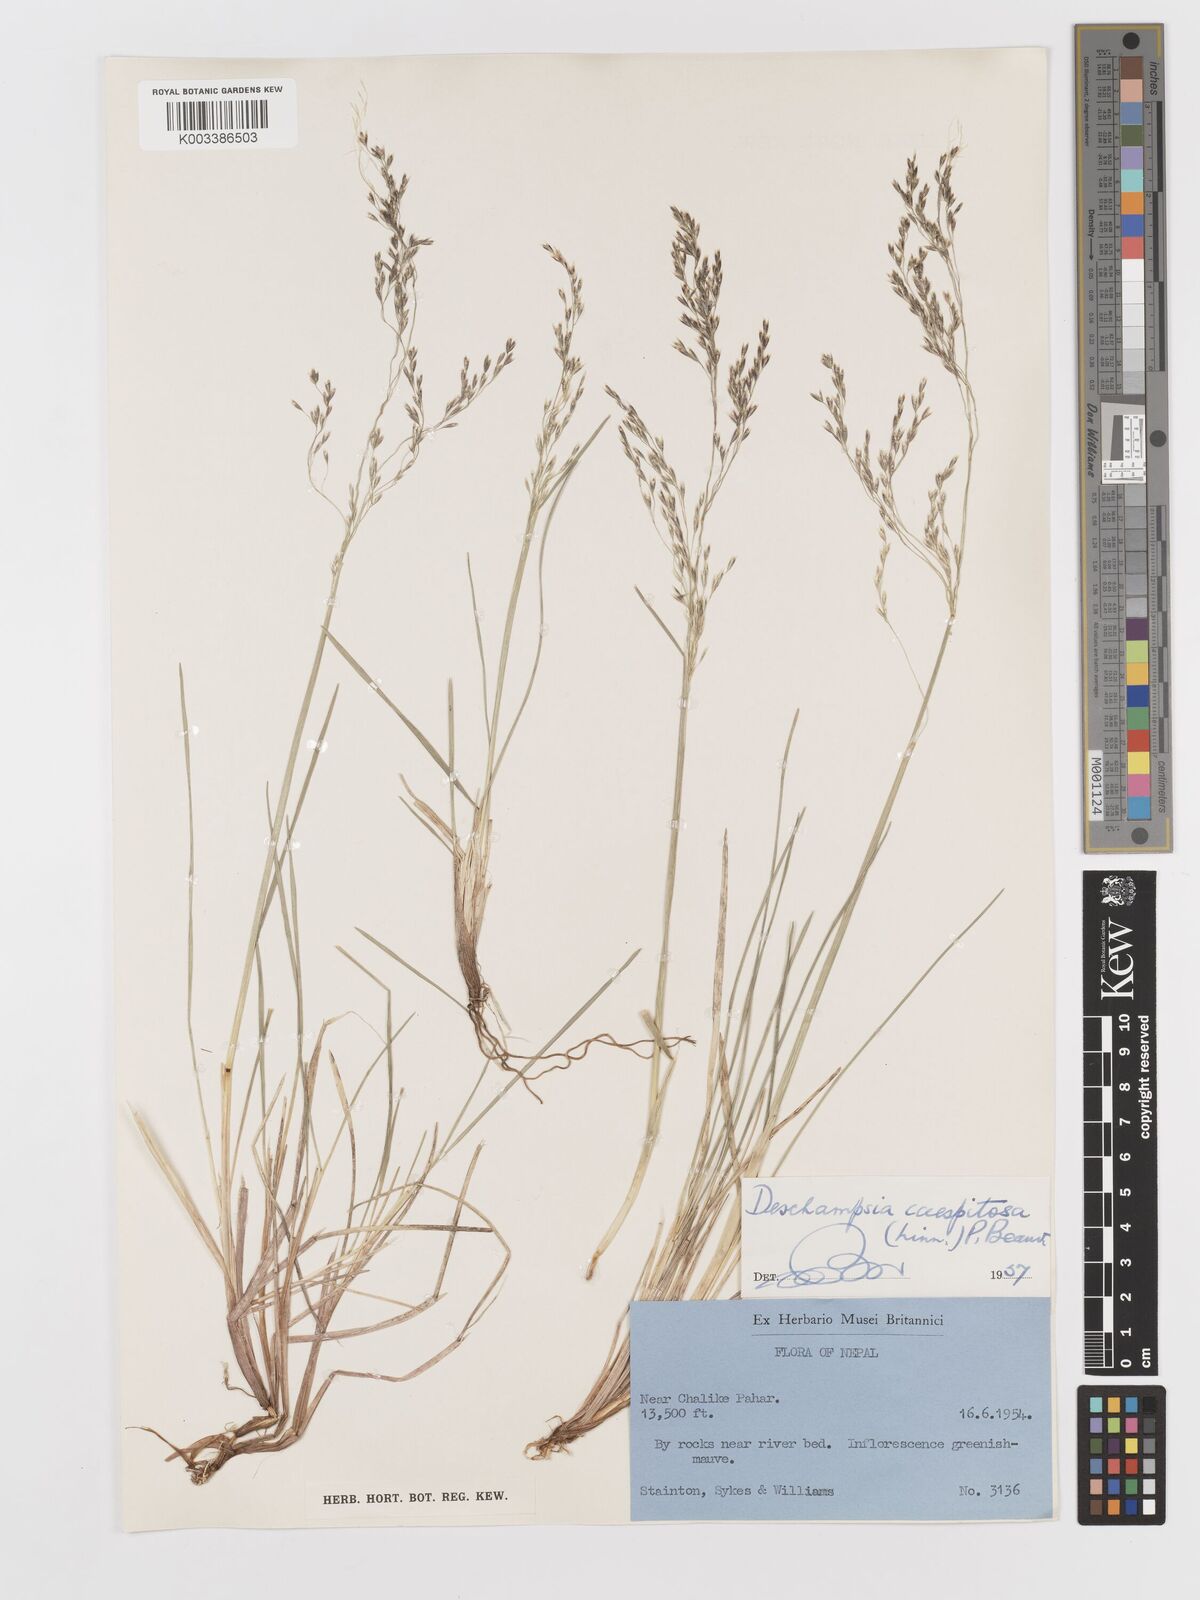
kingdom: Plantae
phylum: Tracheophyta
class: Liliopsida
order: Poales
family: Poaceae
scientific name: Poaceae
